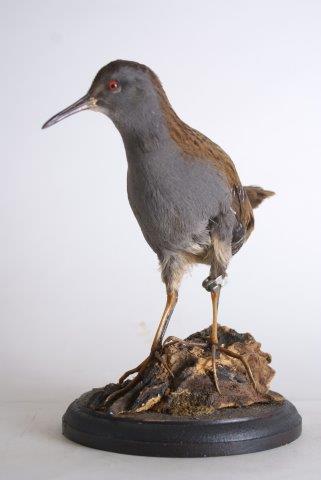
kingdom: Animalia
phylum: Chordata
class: Aves
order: Gruiformes
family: Rallidae
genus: Rallus
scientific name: Rallus aquaticus
